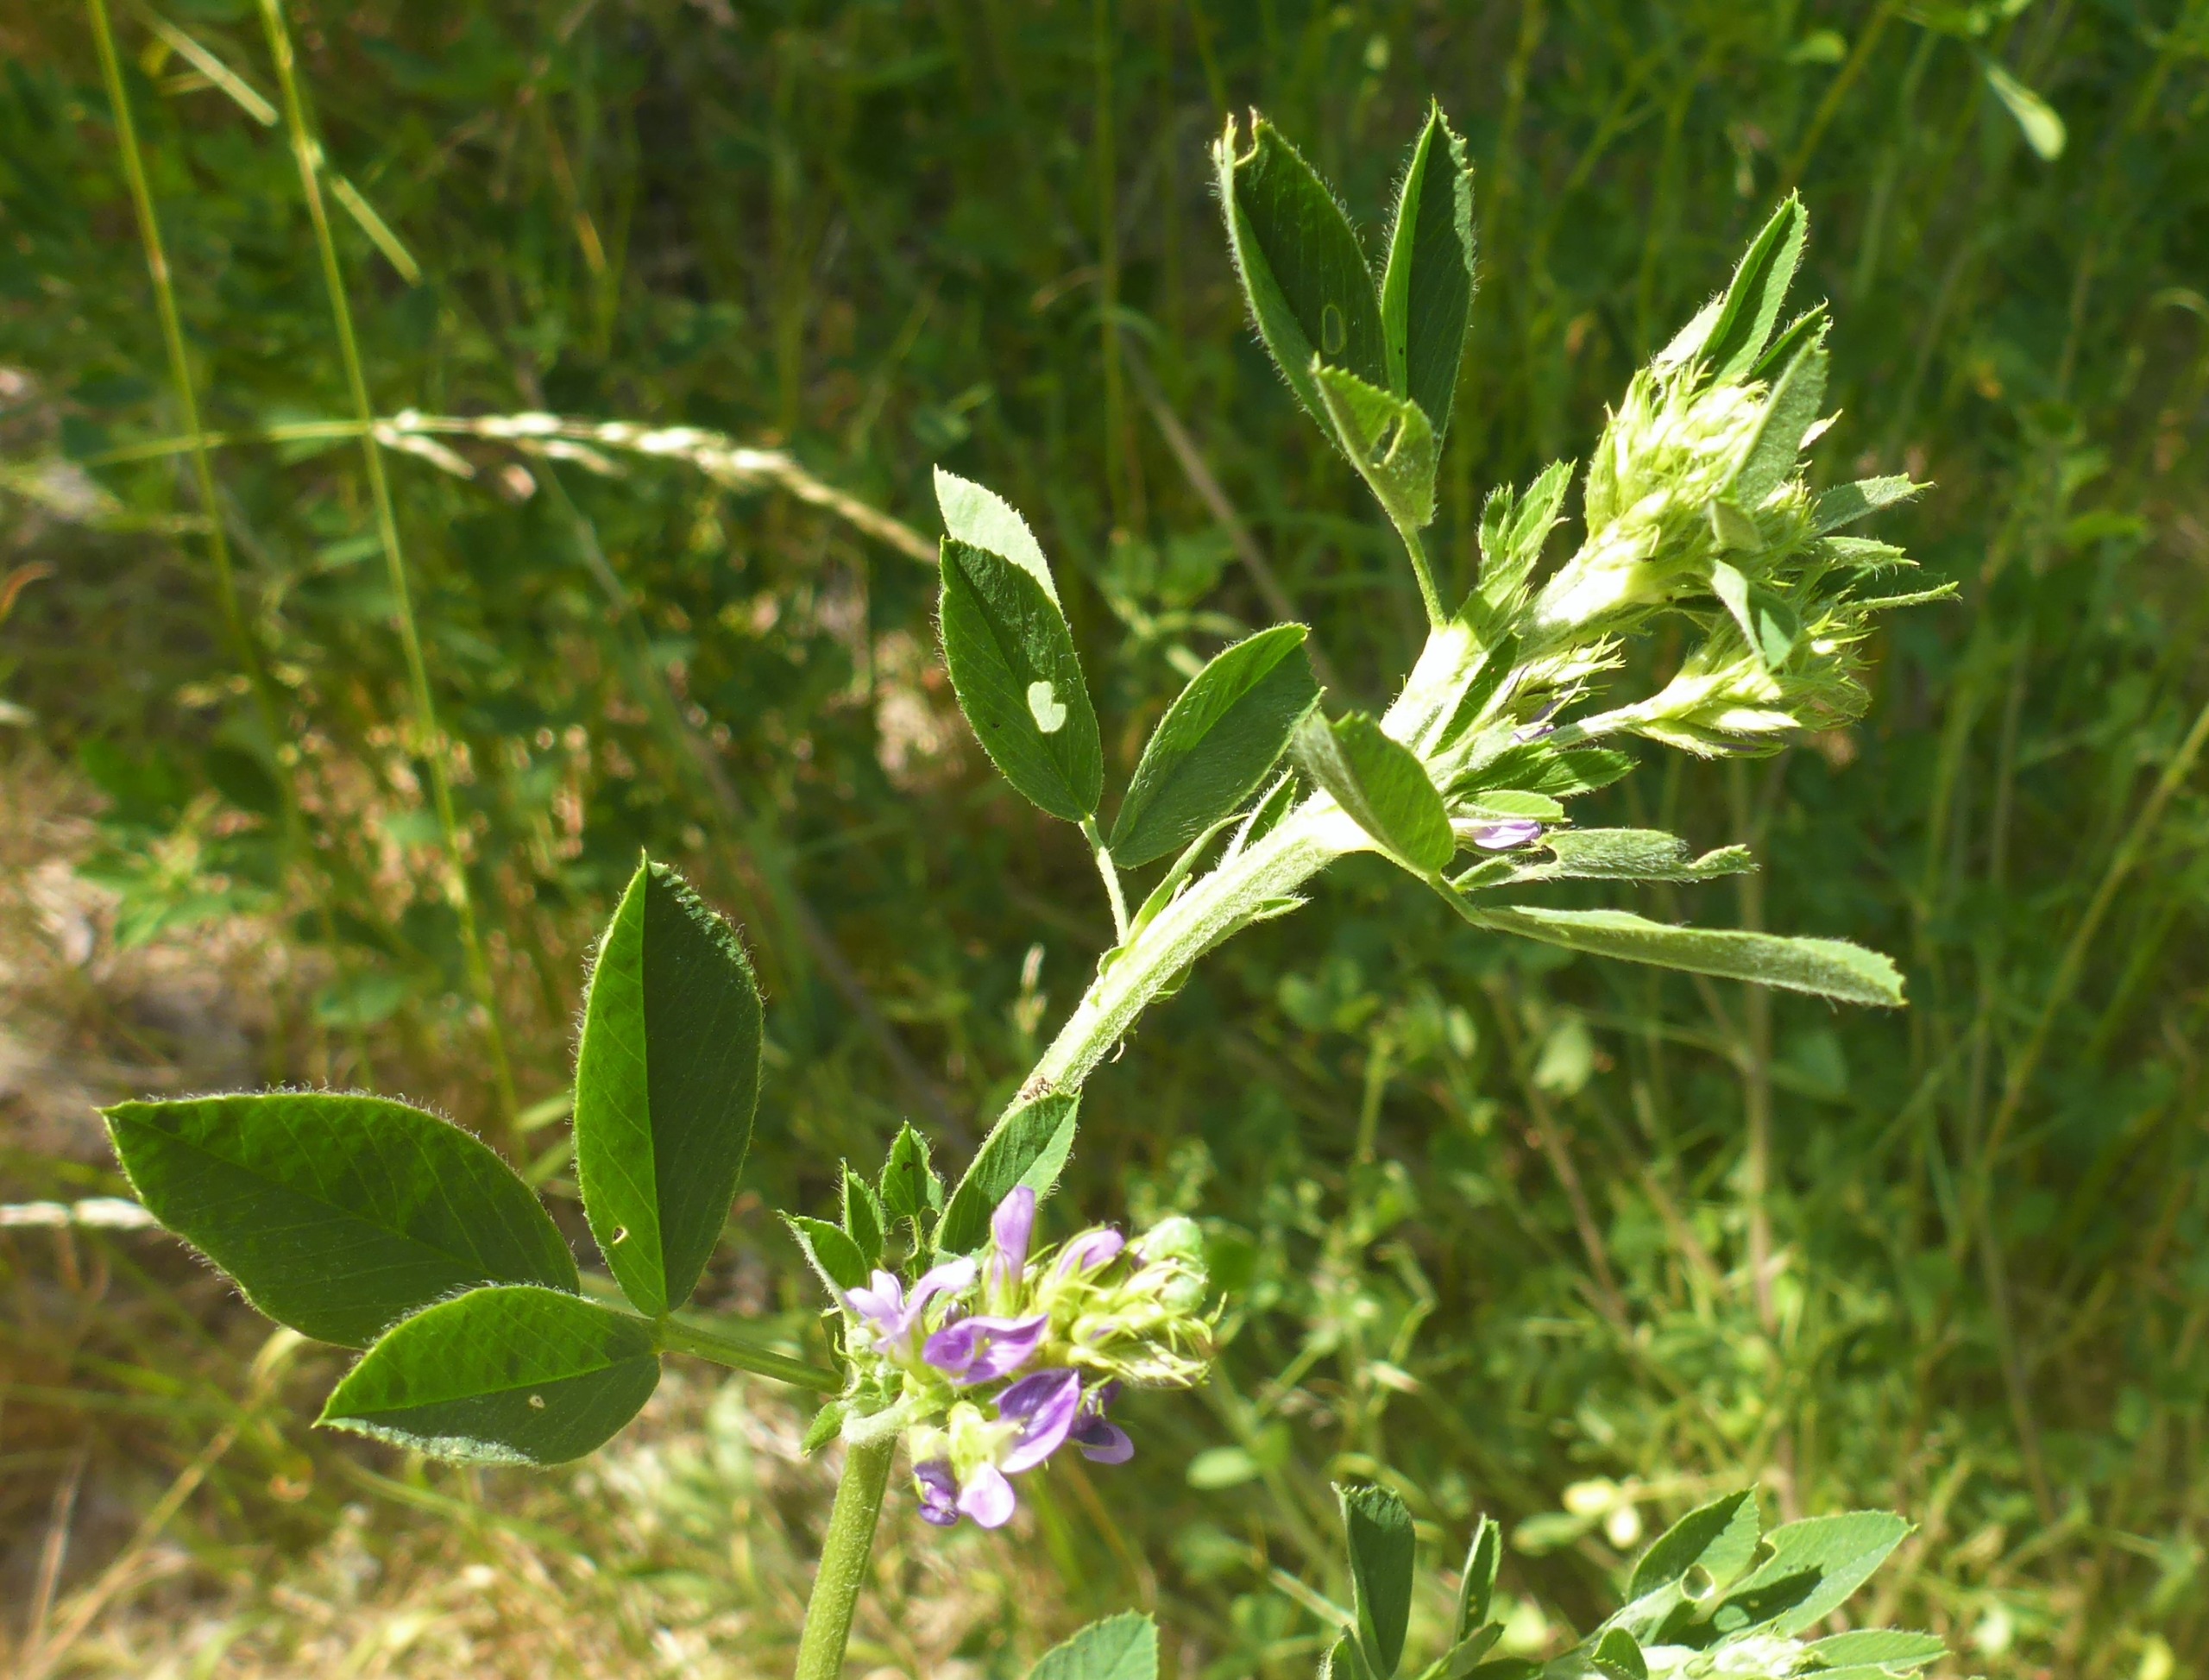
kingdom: Plantae
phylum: Tracheophyta
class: Magnoliopsida
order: Fabales
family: Fabaceae
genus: Medicago
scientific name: Medicago sativa
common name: Lucerne
